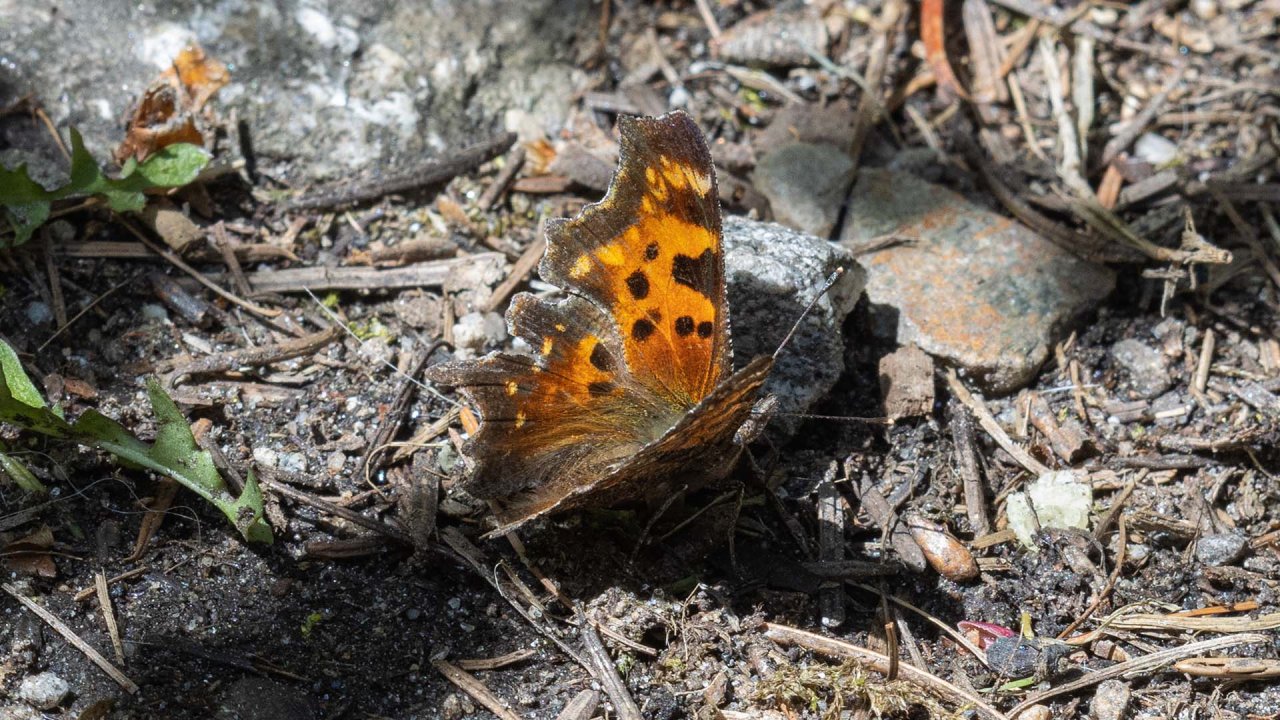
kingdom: Animalia
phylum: Arthropoda
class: Insecta
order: Lepidoptera
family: Nymphalidae
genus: Polygonia
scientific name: Polygonia faunus
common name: Green Comma
